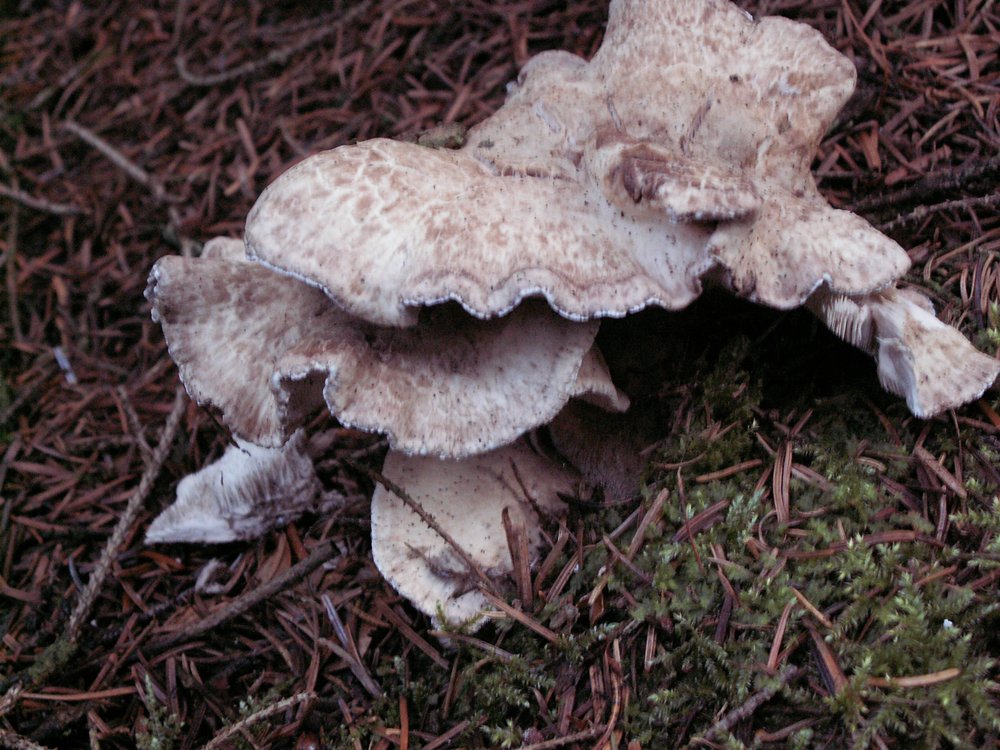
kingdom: Fungi
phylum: Basidiomycota
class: Agaricomycetes
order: Thelephorales
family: Thelephoraceae
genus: Phellodon
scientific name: Phellodon violascens
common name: violetbrun duftpigsvamp
